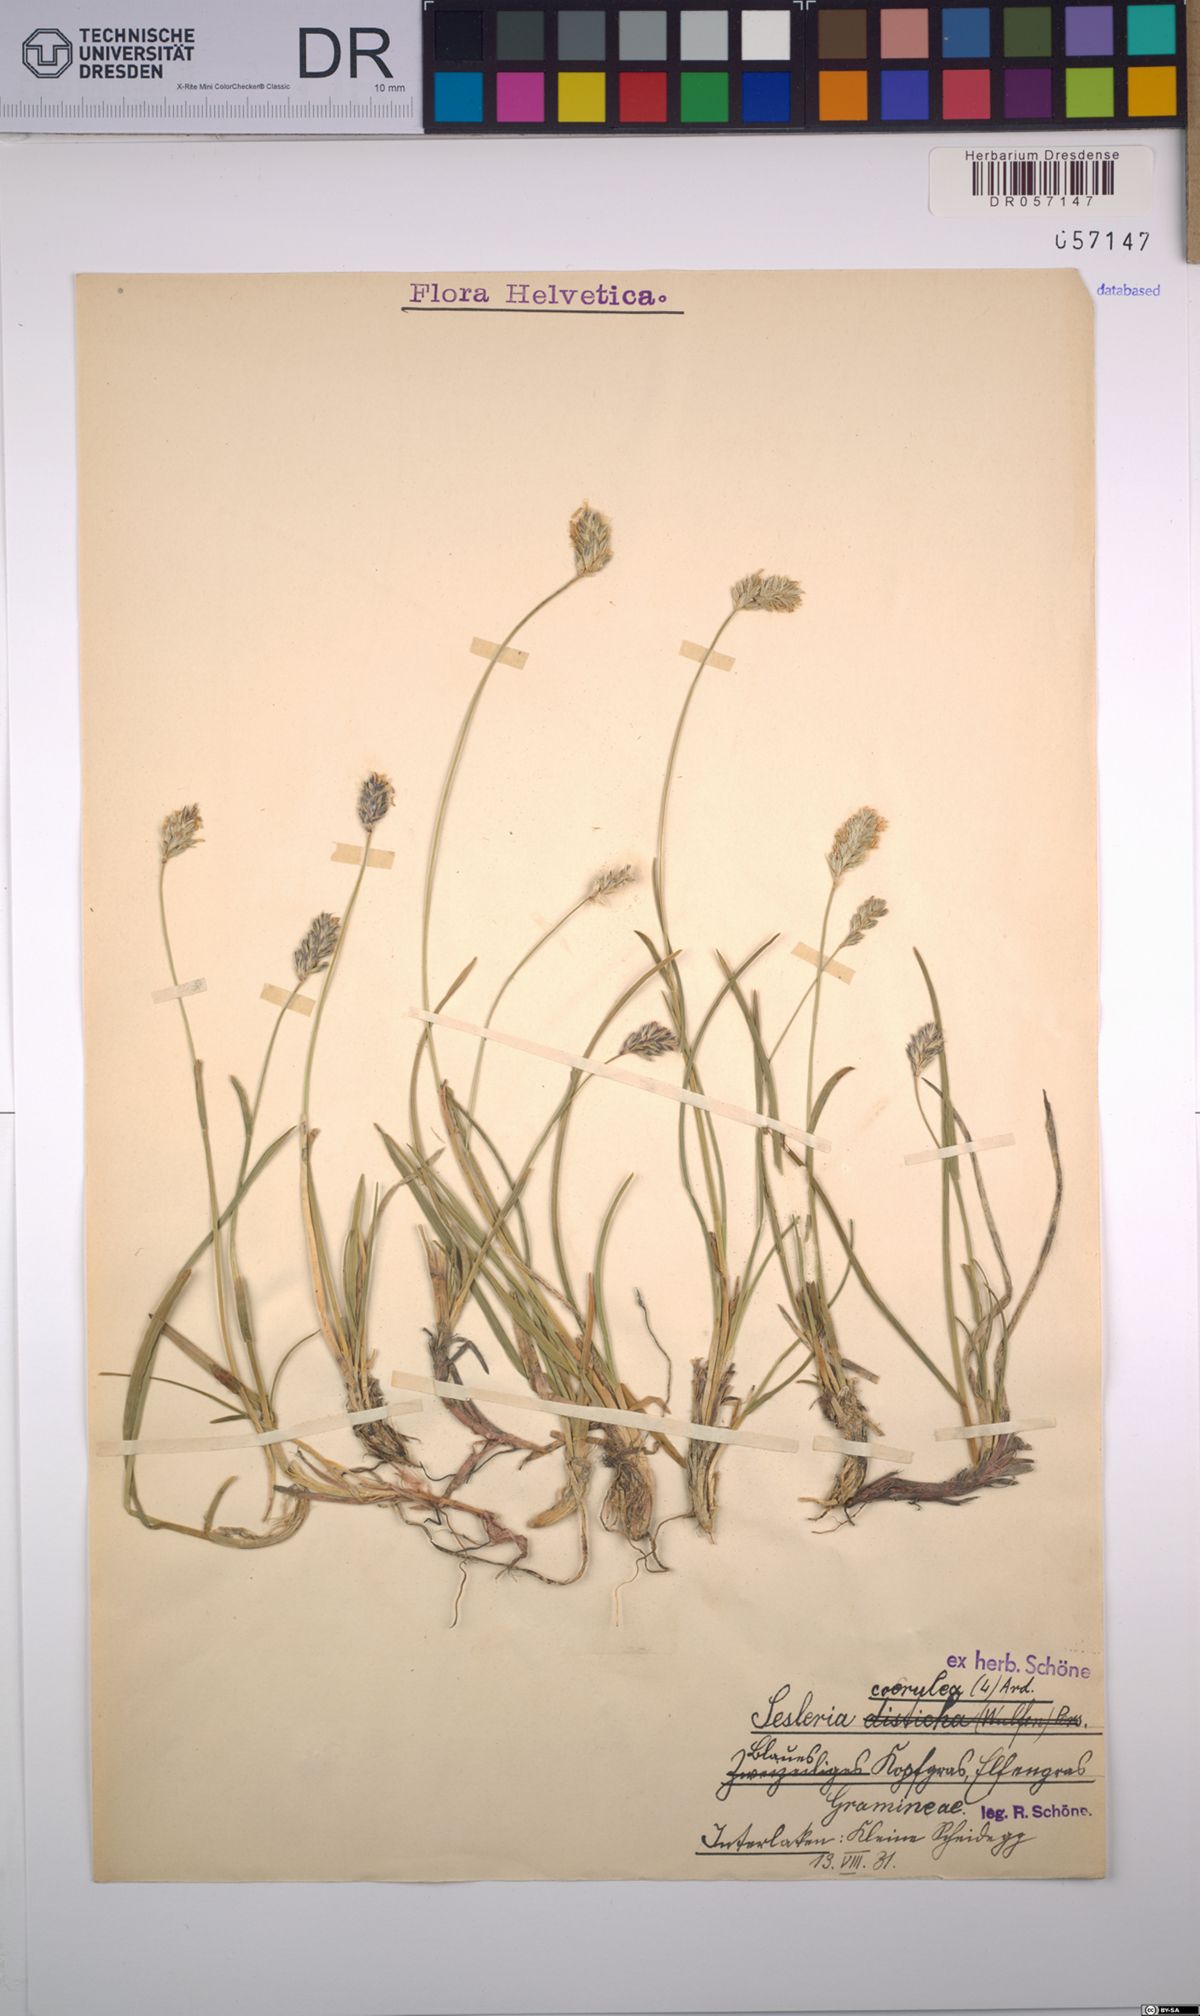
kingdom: Plantae
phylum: Tracheophyta
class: Liliopsida
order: Poales
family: Poaceae
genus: Sesleria
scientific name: Sesleria caerulea
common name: Blue moor-grass
